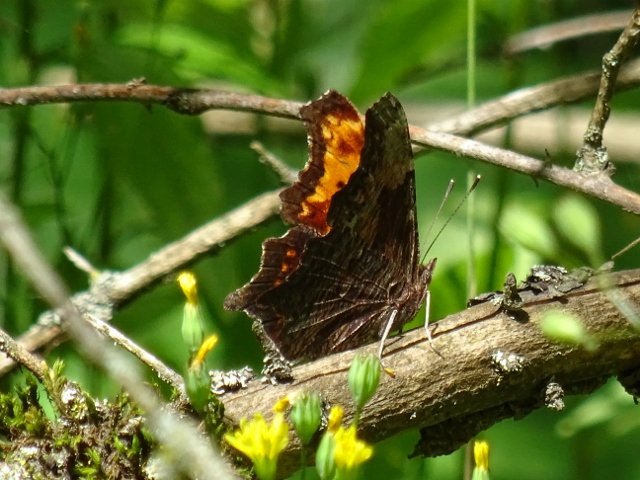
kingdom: Animalia
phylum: Arthropoda
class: Insecta
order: Lepidoptera
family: Nymphalidae
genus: Polygonia
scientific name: Polygonia progne
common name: Gray Comma
